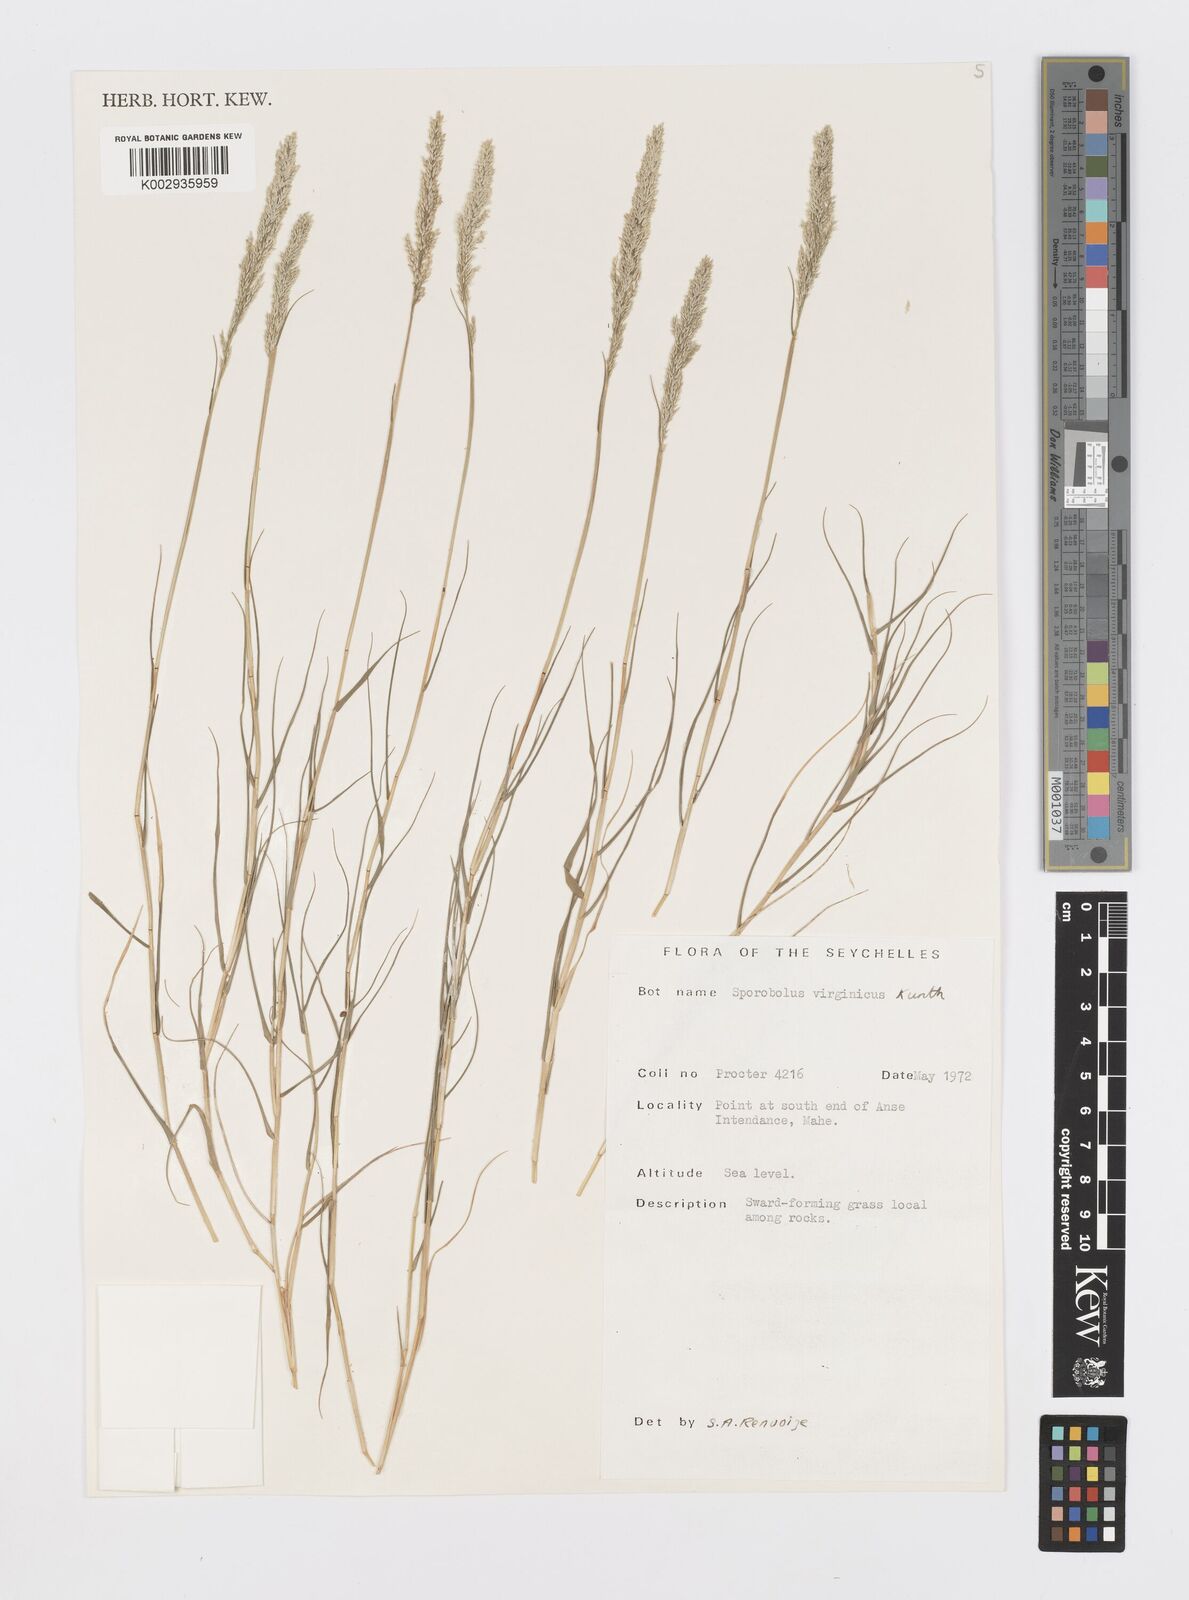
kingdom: Plantae
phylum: Tracheophyta
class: Liliopsida
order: Poales
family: Poaceae
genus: Sporobolus
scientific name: Sporobolus virginicus
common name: Beach dropseed
